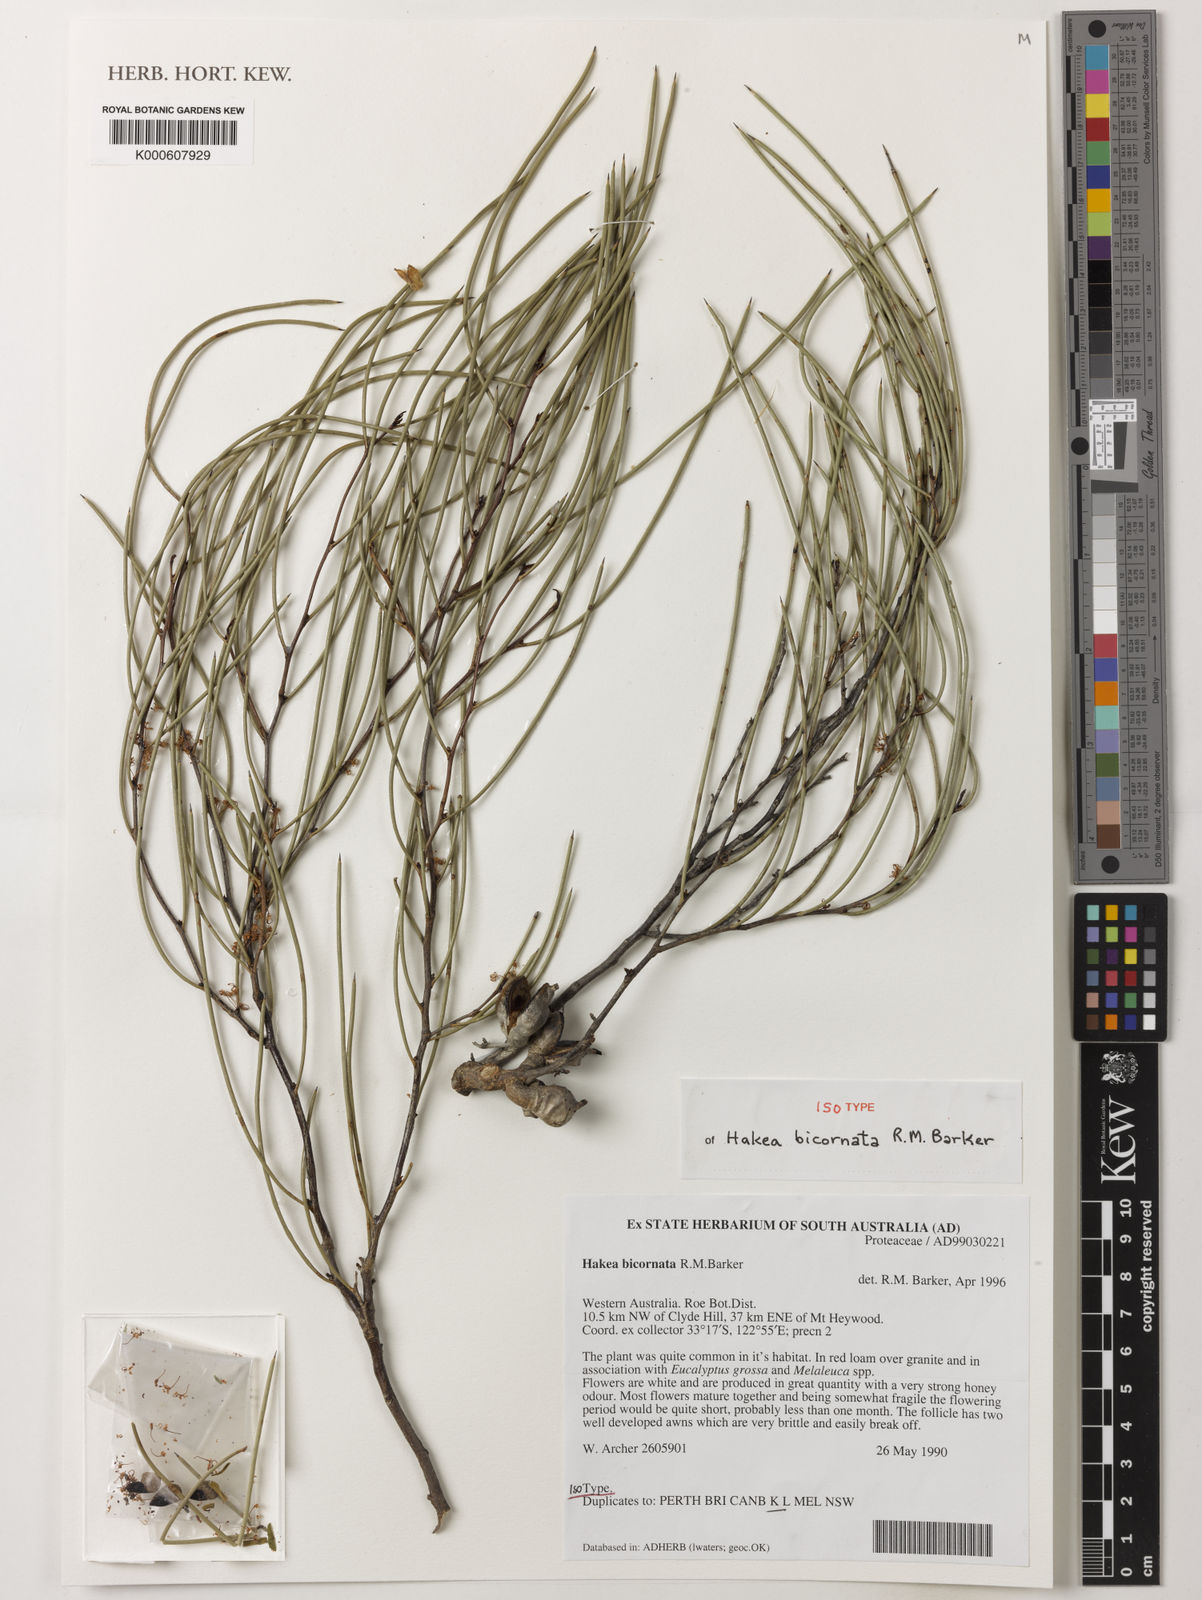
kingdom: Plantae
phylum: Tracheophyta
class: Magnoliopsida
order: Proteales
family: Proteaceae
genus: Hakea
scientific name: Hakea bicornata
